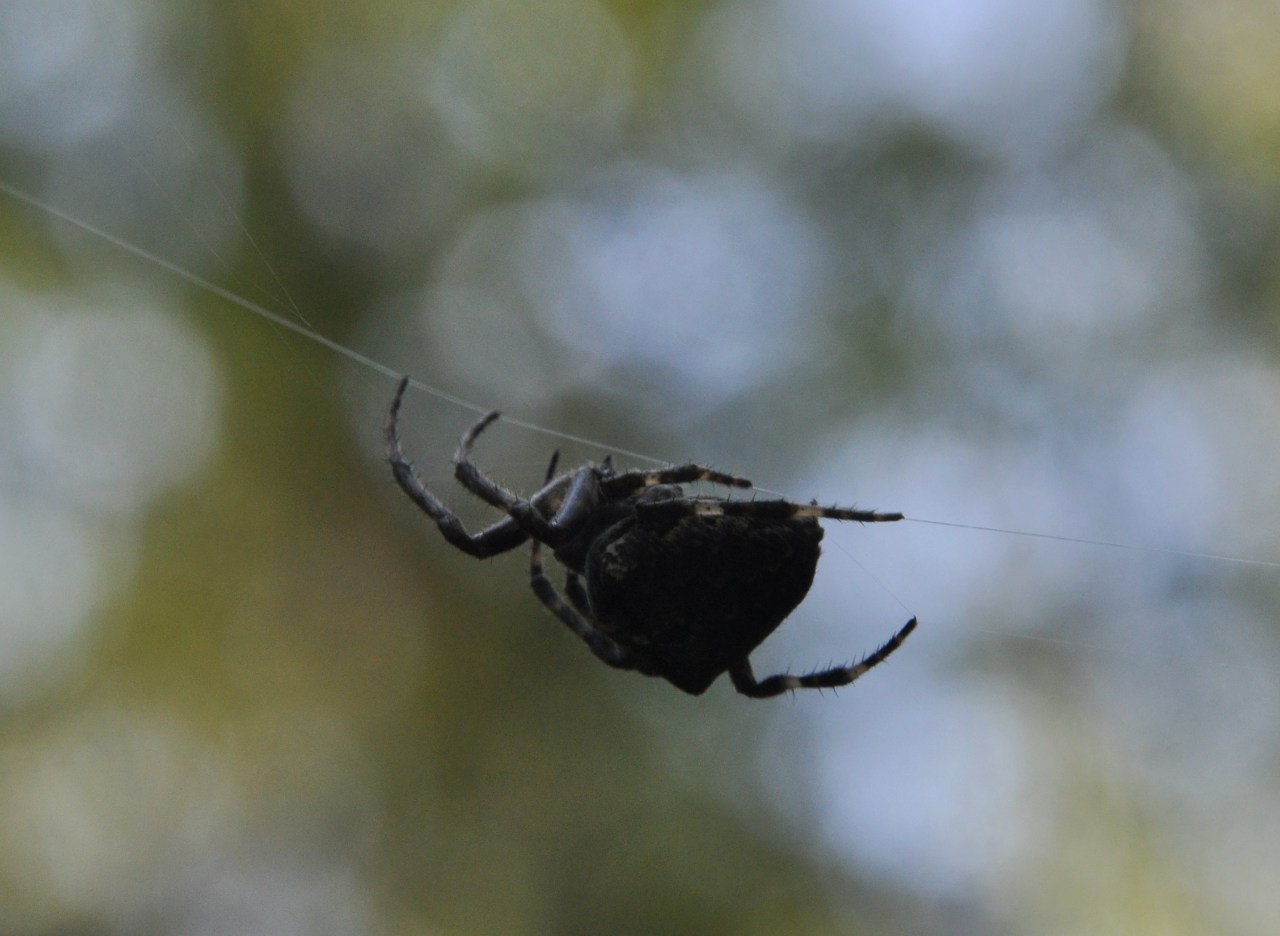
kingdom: Animalia
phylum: Arthropoda
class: Arachnida
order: Araneae
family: Araneidae
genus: Araneus
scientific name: Araneus
